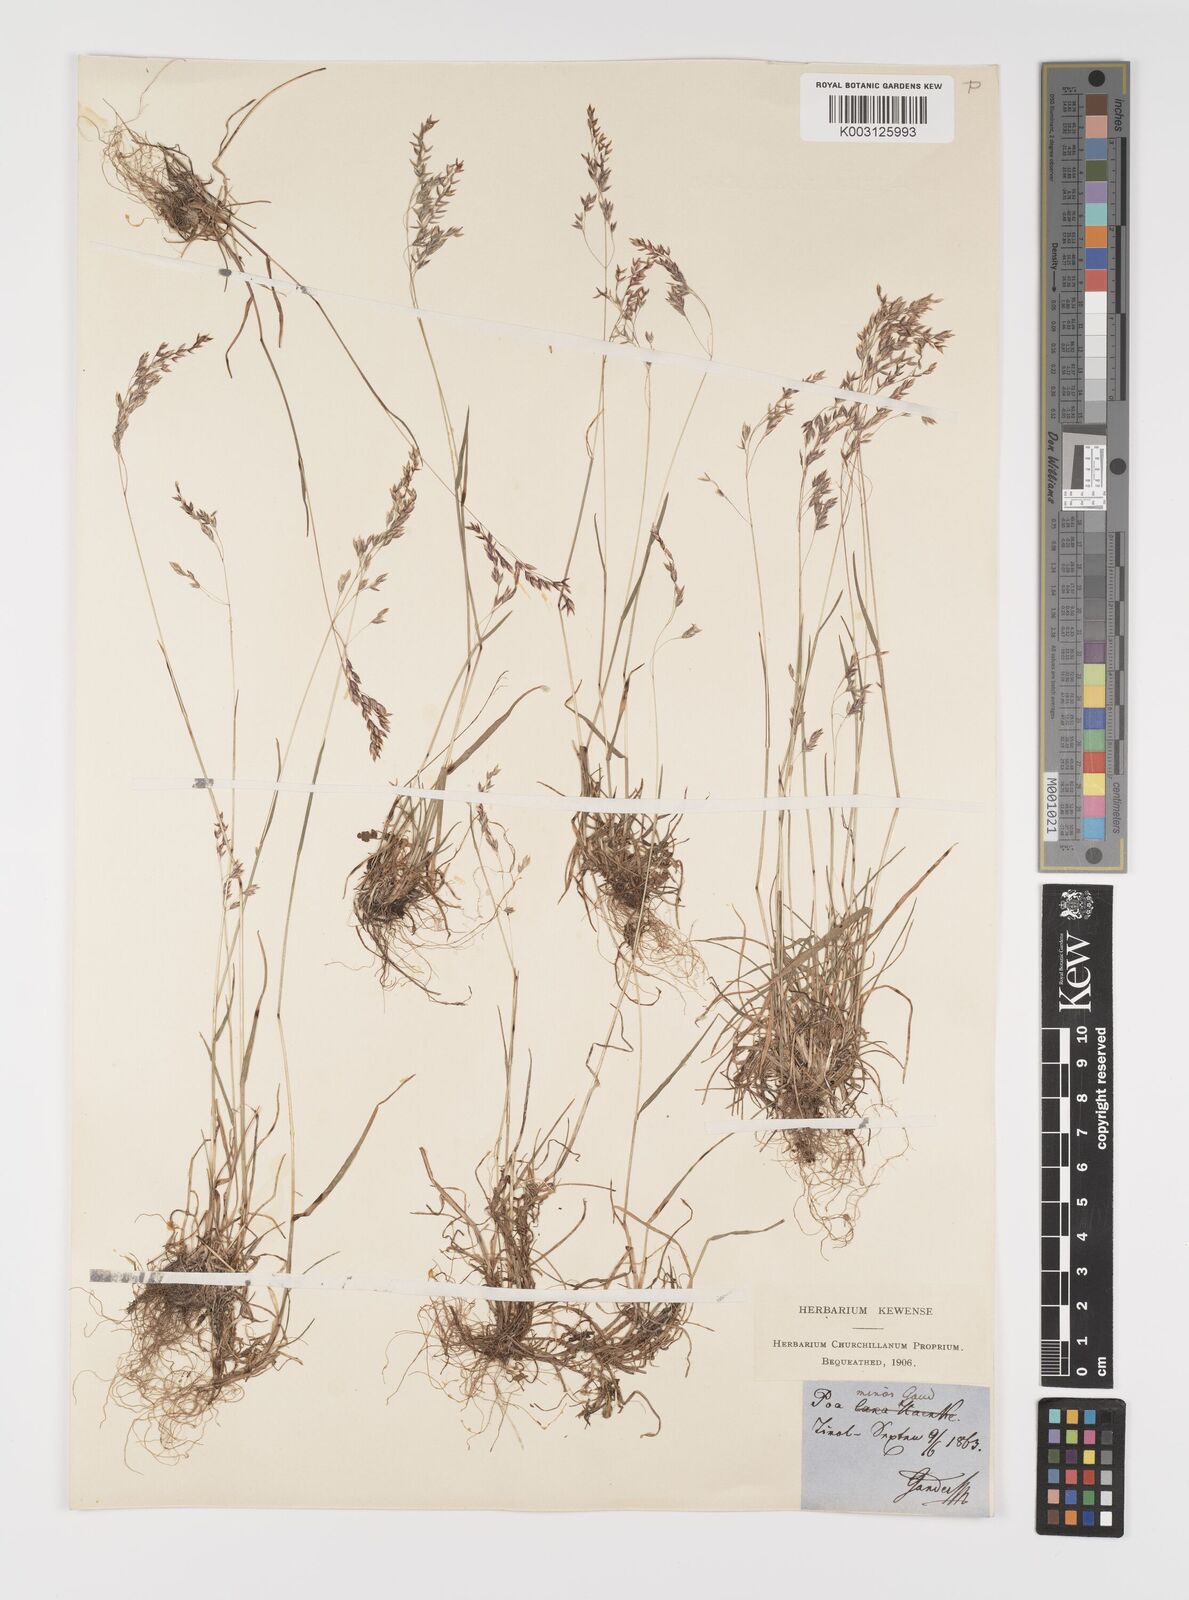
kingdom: Plantae
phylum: Tracheophyta
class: Liliopsida
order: Poales
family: Poaceae
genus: Poa
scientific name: Poa minor
